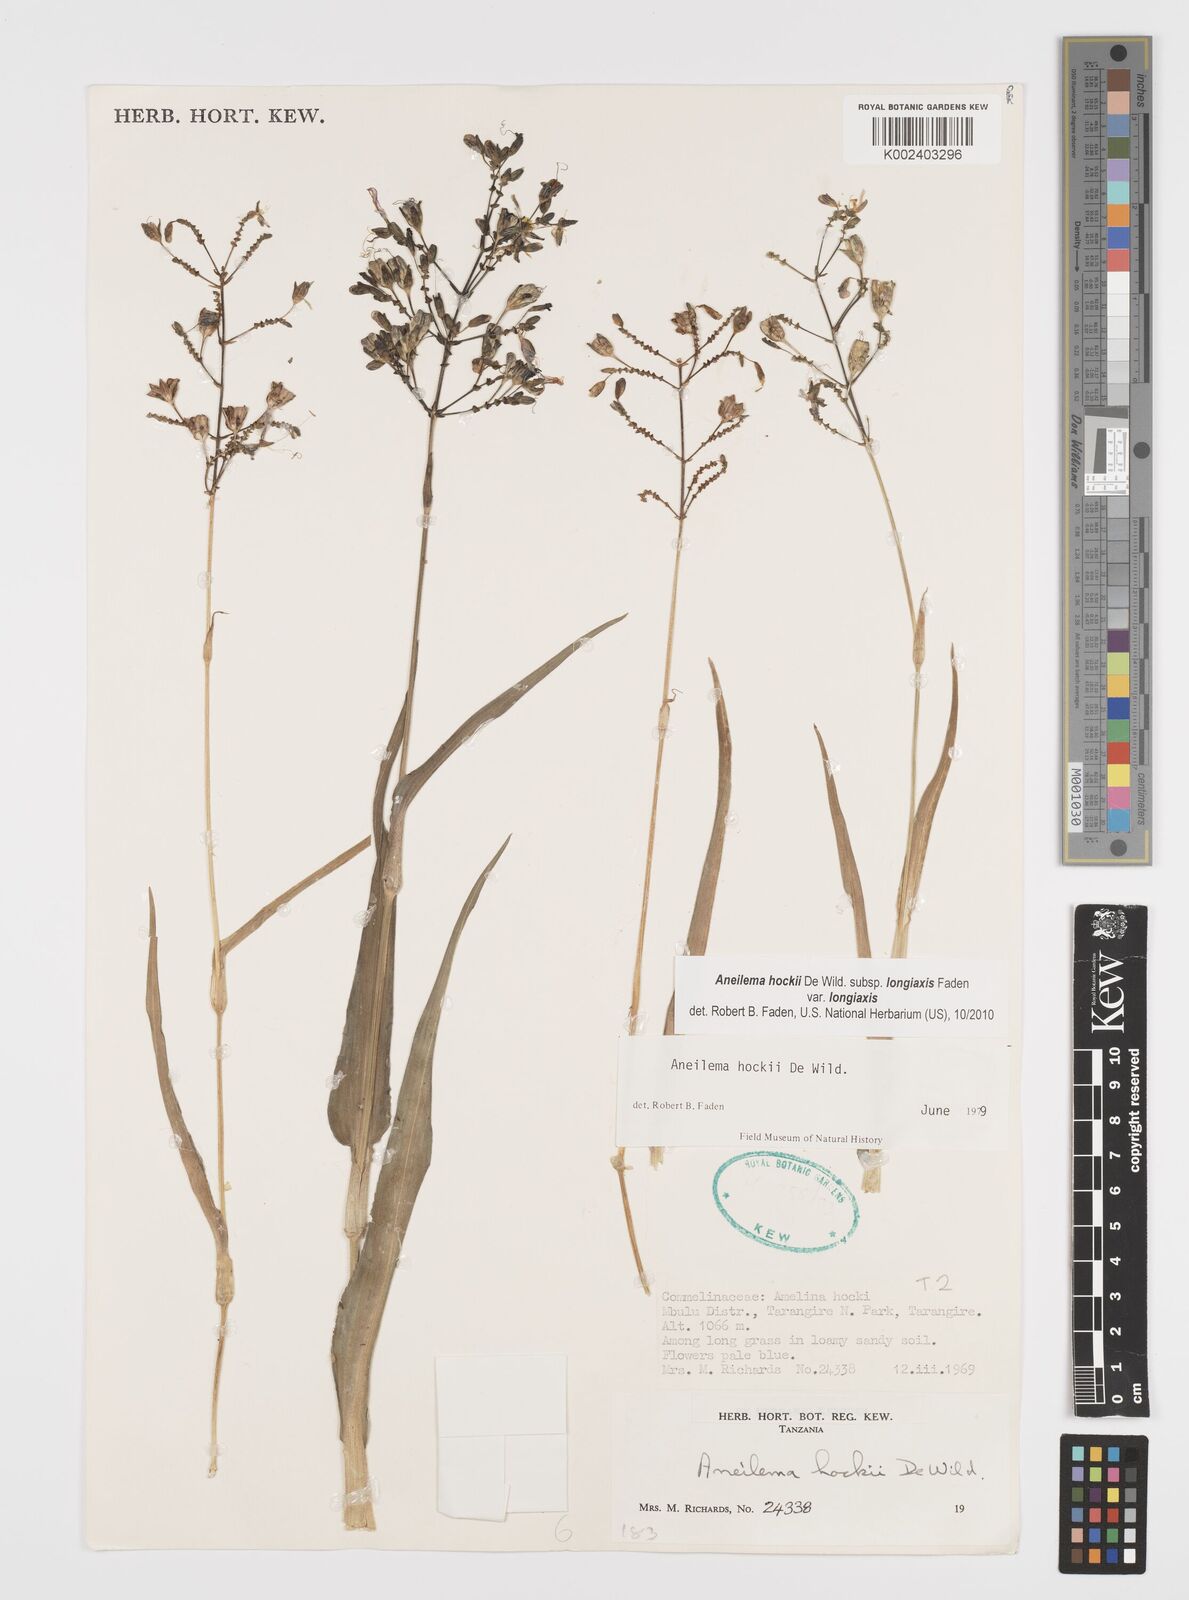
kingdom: Plantae
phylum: Tracheophyta
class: Liliopsida
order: Commelinales
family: Commelinaceae
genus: Aneilema
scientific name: Aneilema hockii
